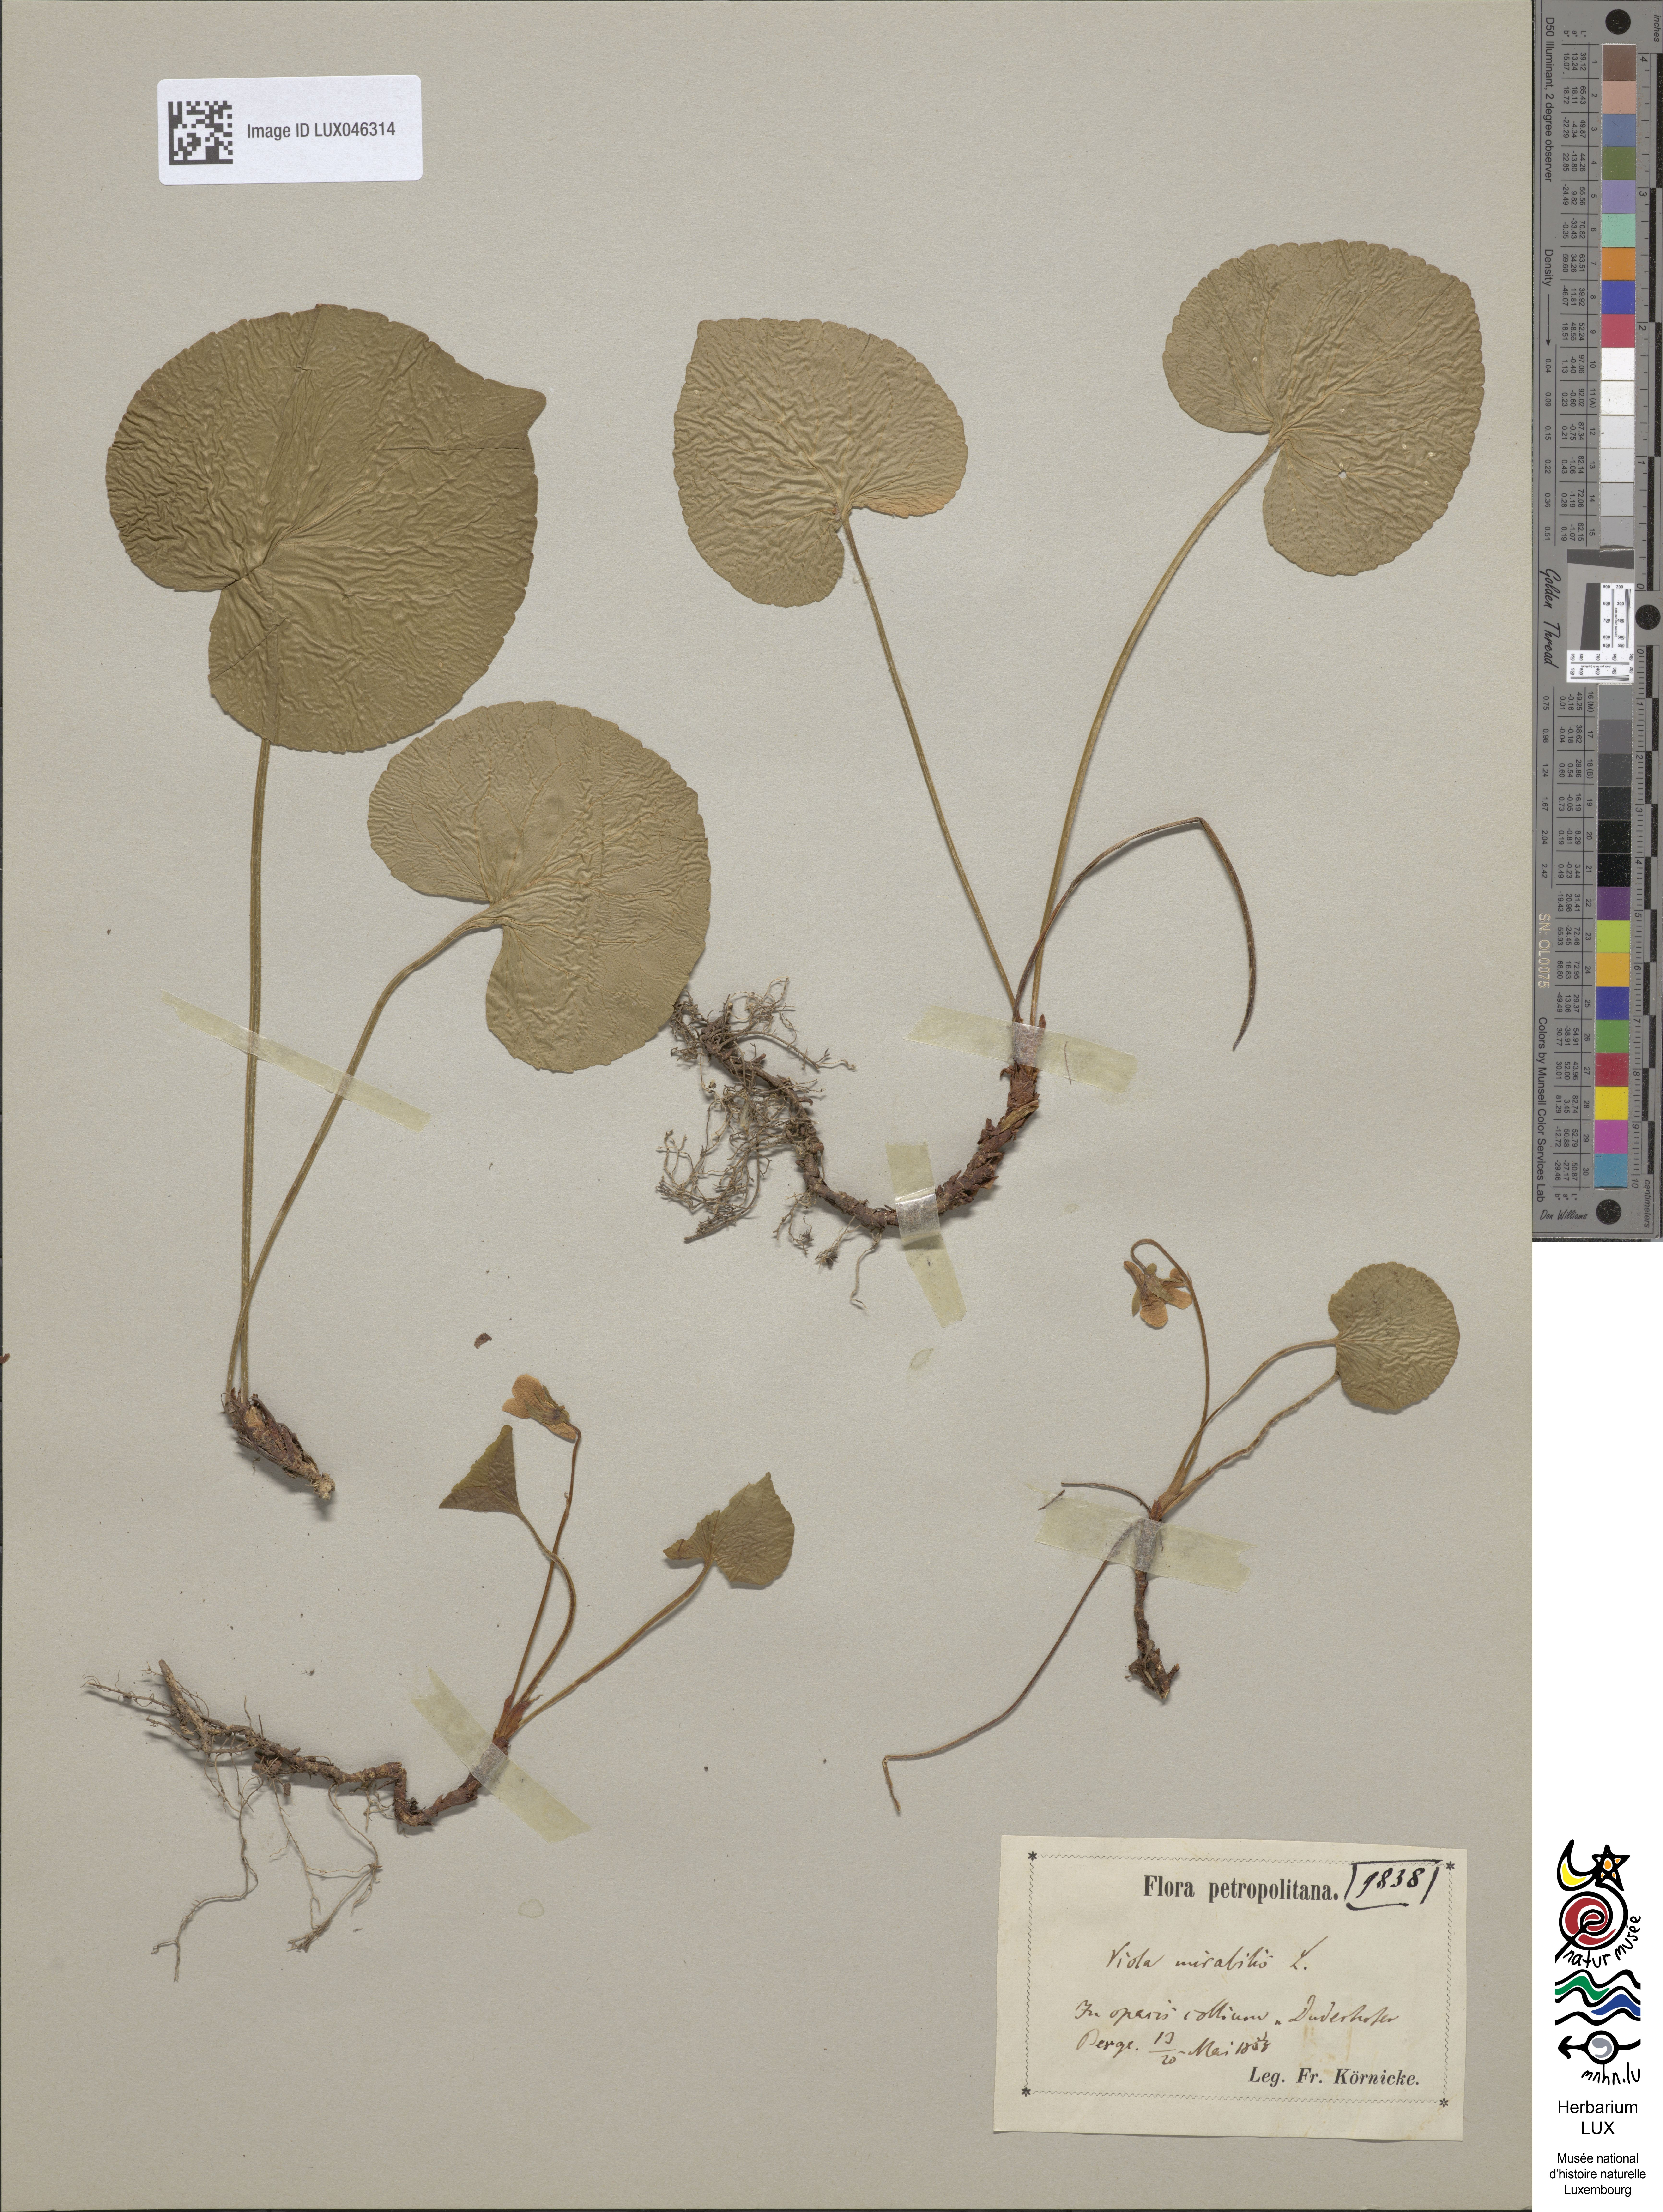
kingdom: Plantae
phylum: Tracheophyta
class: Magnoliopsida
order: Malpighiales
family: Violaceae
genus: Viola
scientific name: Viola mirabilis
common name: Wonder violet
